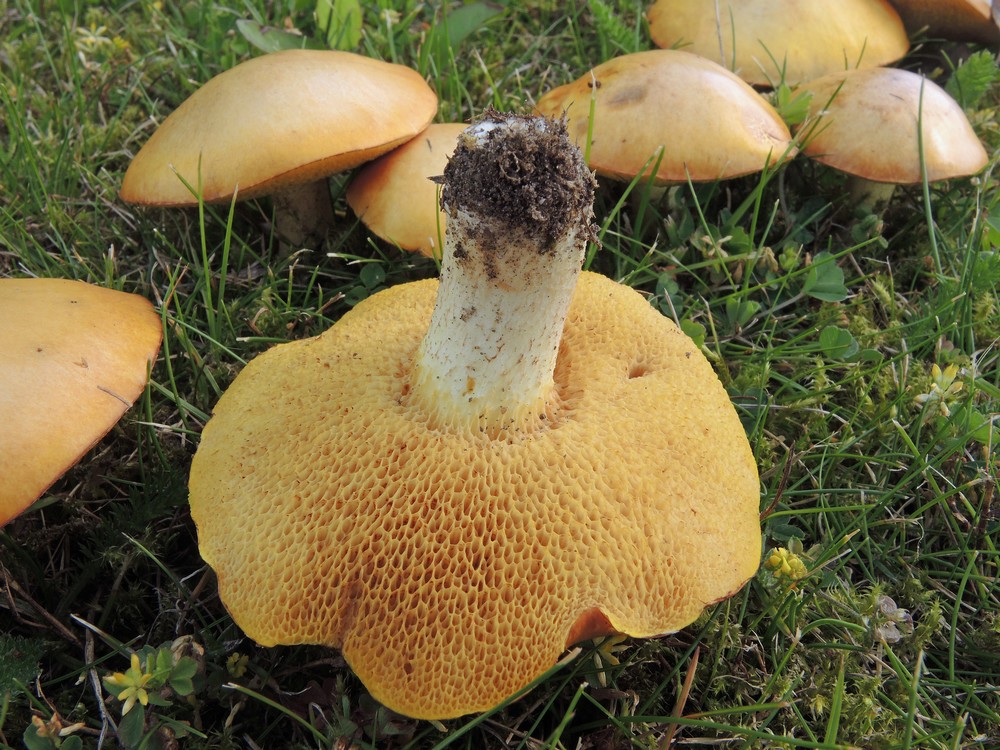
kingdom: Fungi
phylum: Basidiomycota
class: Agaricomycetes
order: Boletales
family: Suillaceae
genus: Suillus
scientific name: Suillus granulatus
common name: kornet slimrørhat
